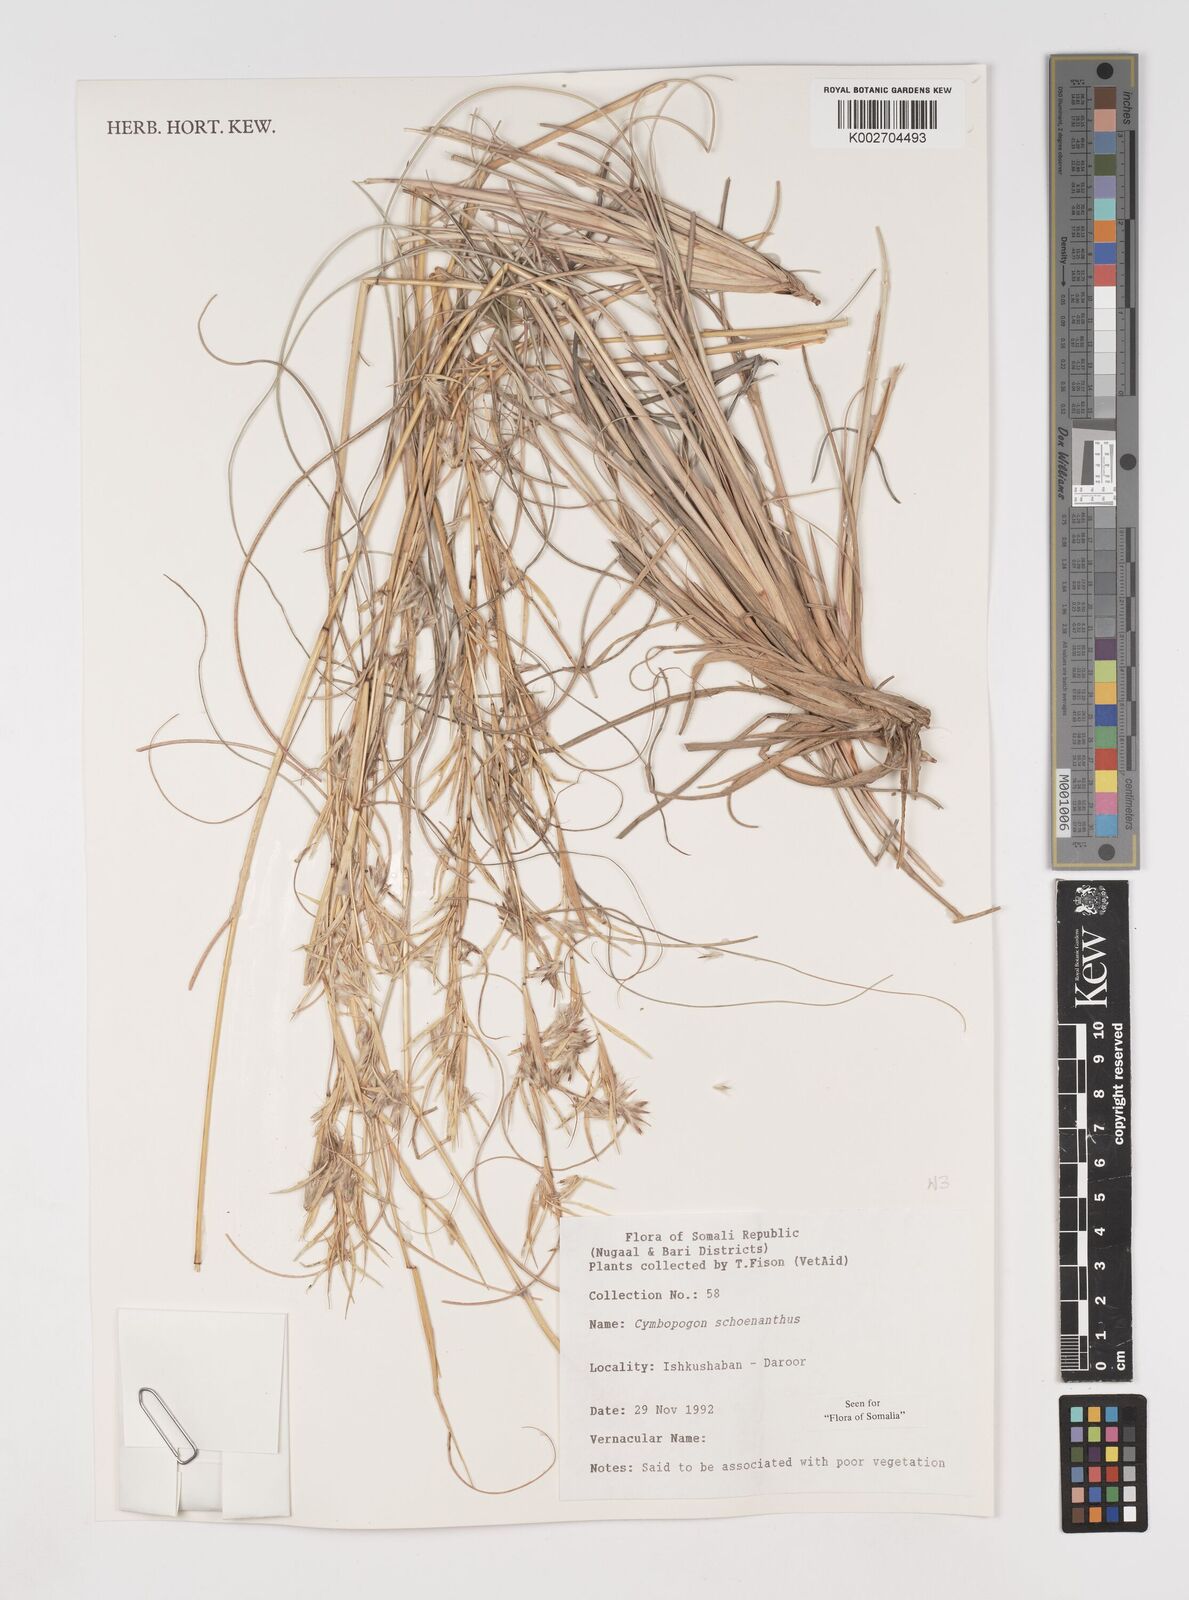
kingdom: Plantae
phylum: Tracheophyta
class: Liliopsida
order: Poales
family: Poaceae
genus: Cymbopogon
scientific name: Cymbopogon schoenanthus
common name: Geranium grass
